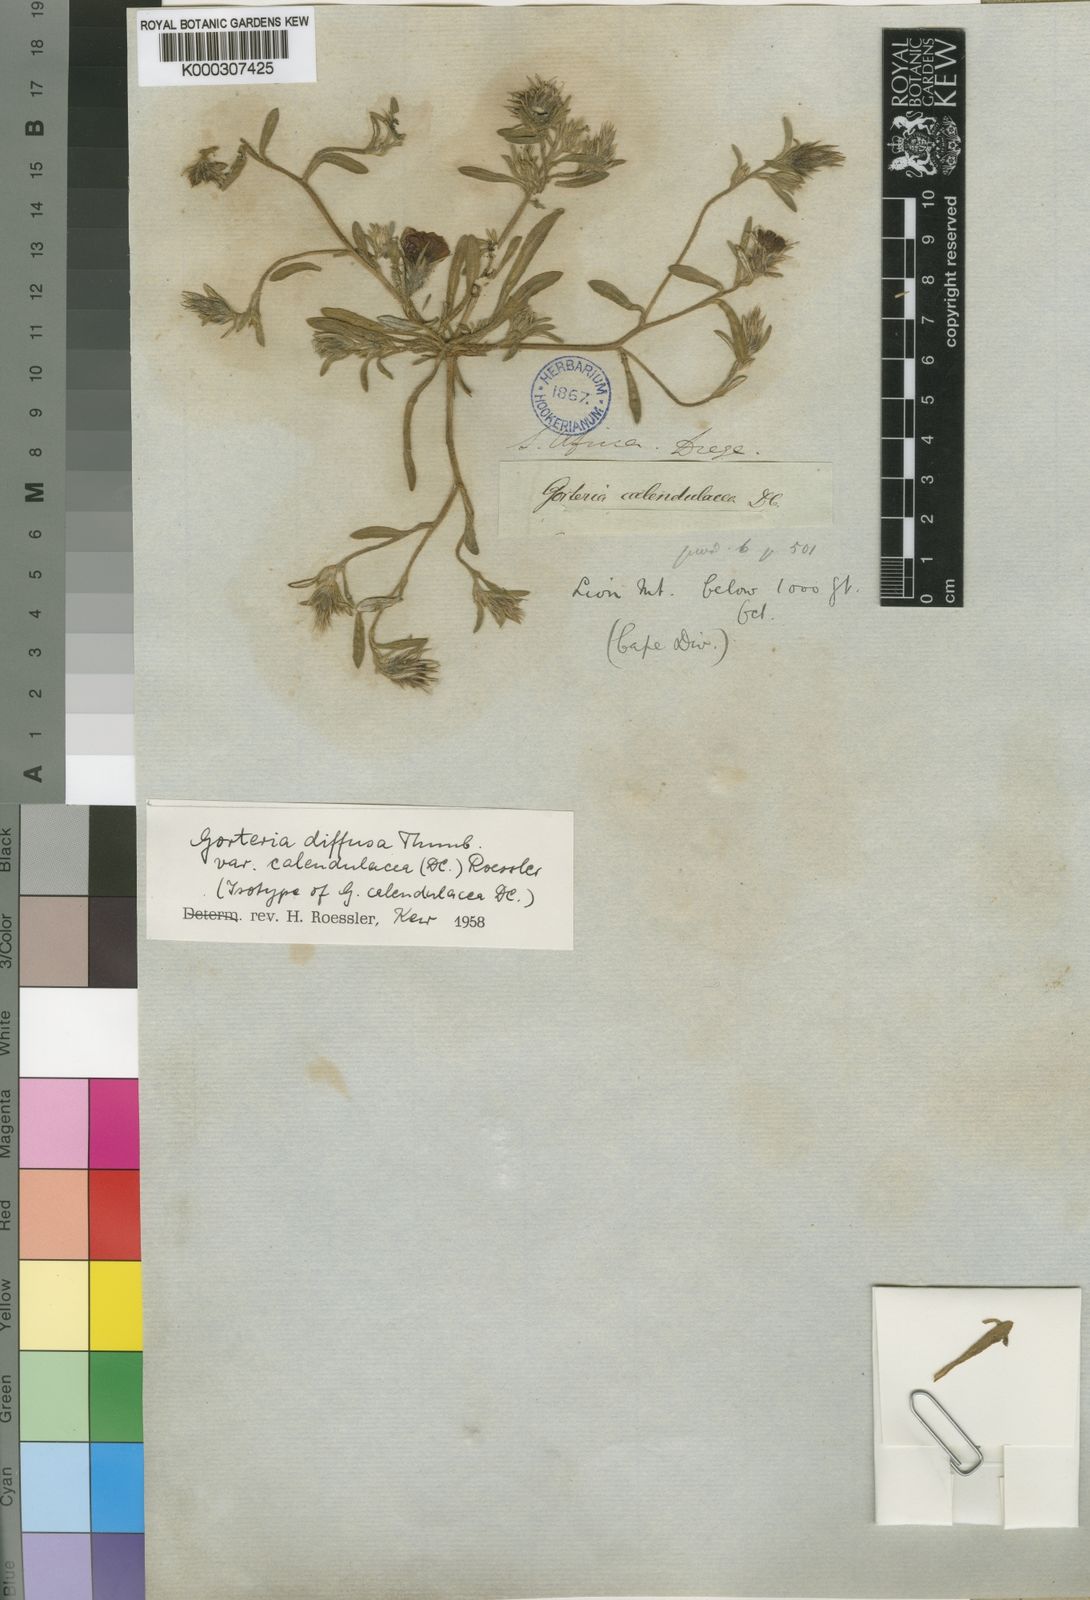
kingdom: Plantae
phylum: Tracheophyta
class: Magnoliopsida
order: Asterales
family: Asteraceae
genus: Gorteria
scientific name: Gorteria diffusa
